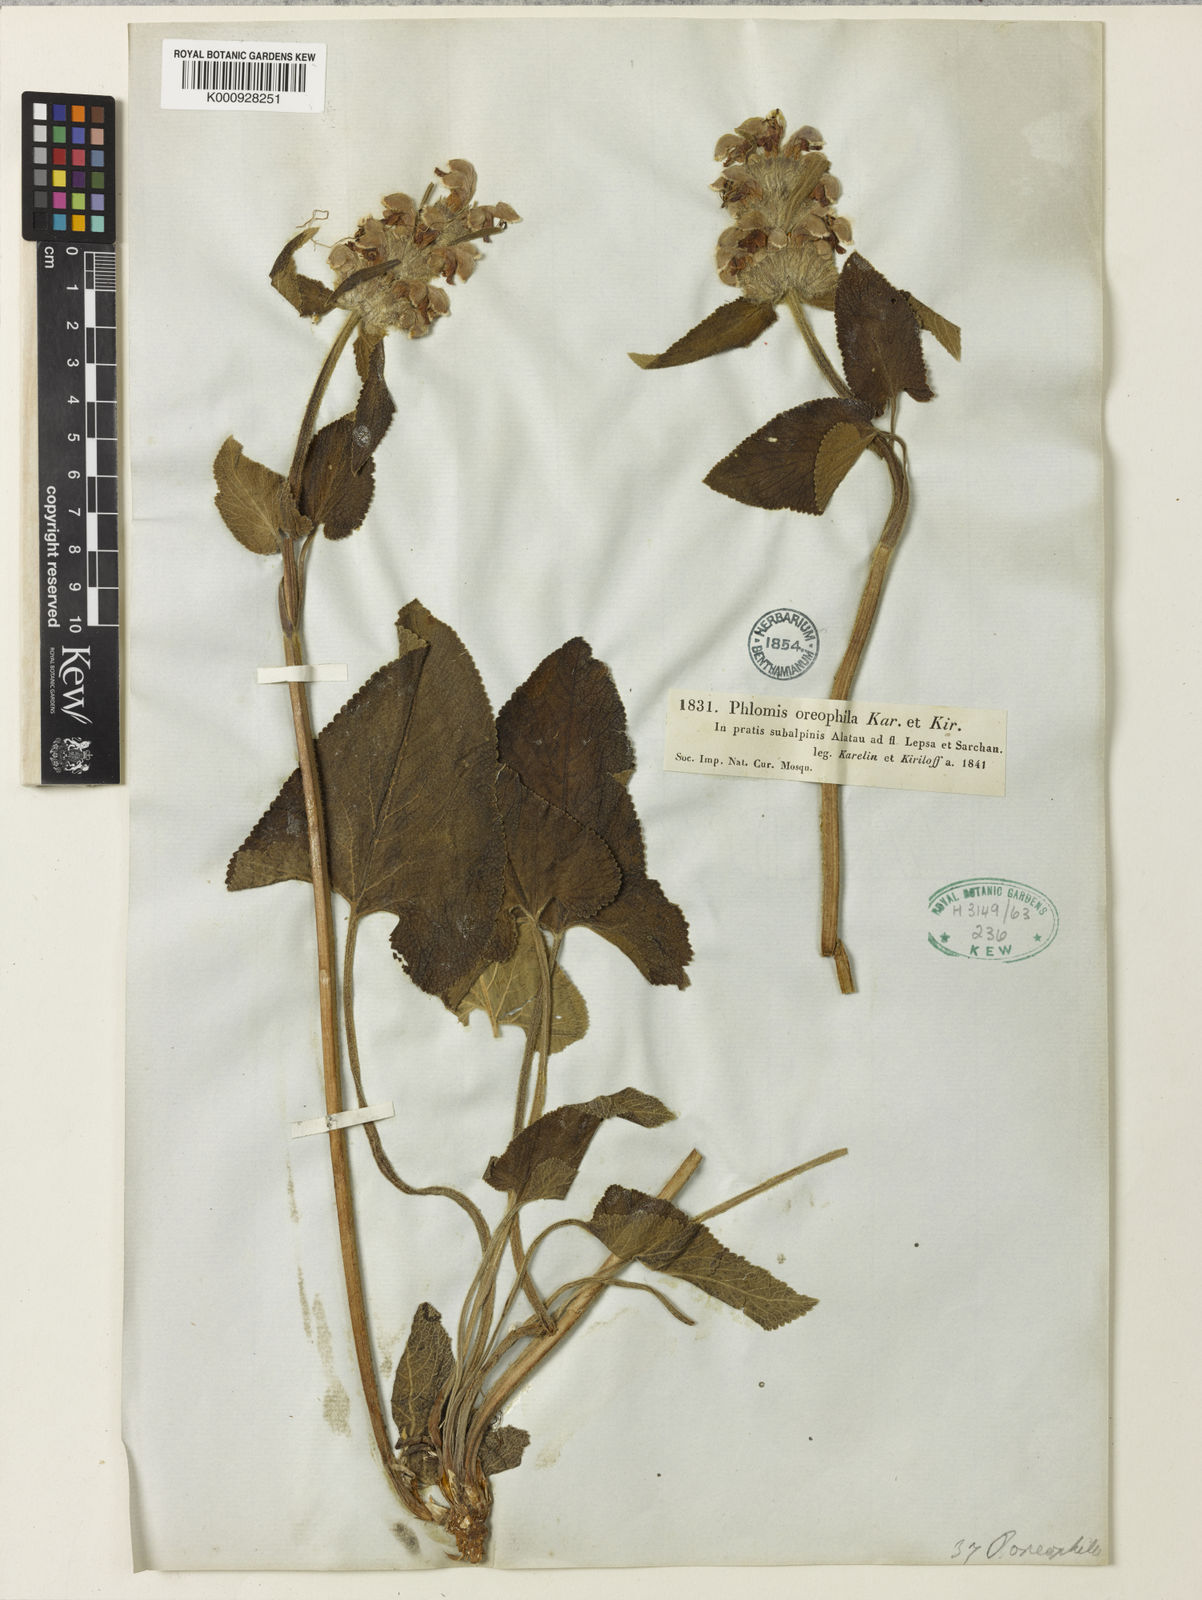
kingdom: Plantae
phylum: Tracheophyta
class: Magnoliopsida
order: Lamiales
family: Lamiaceae
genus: Phlomoides
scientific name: Phlomoides oreophila
